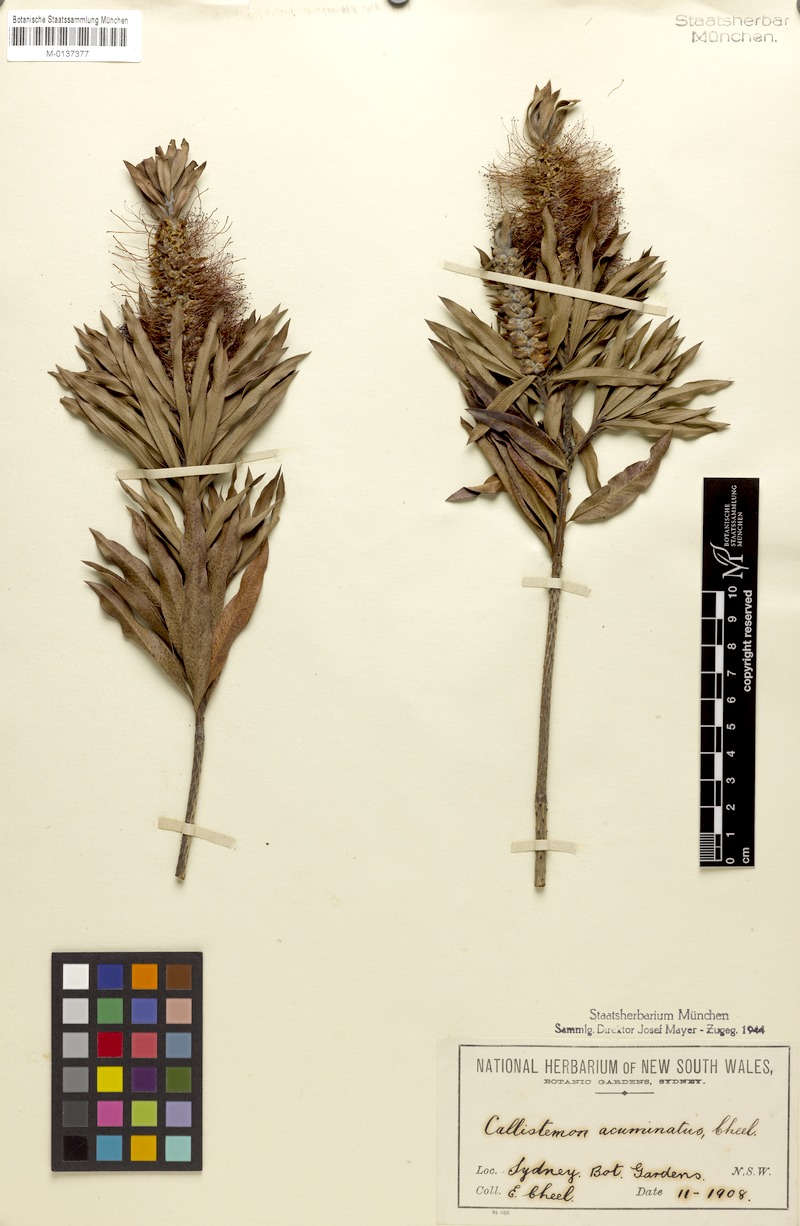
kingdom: Plantae
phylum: Tracheophyta
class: Magnoliopsida
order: Myrtales
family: Myrtaceae
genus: Callistemon
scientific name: Callistemon acuminatus
